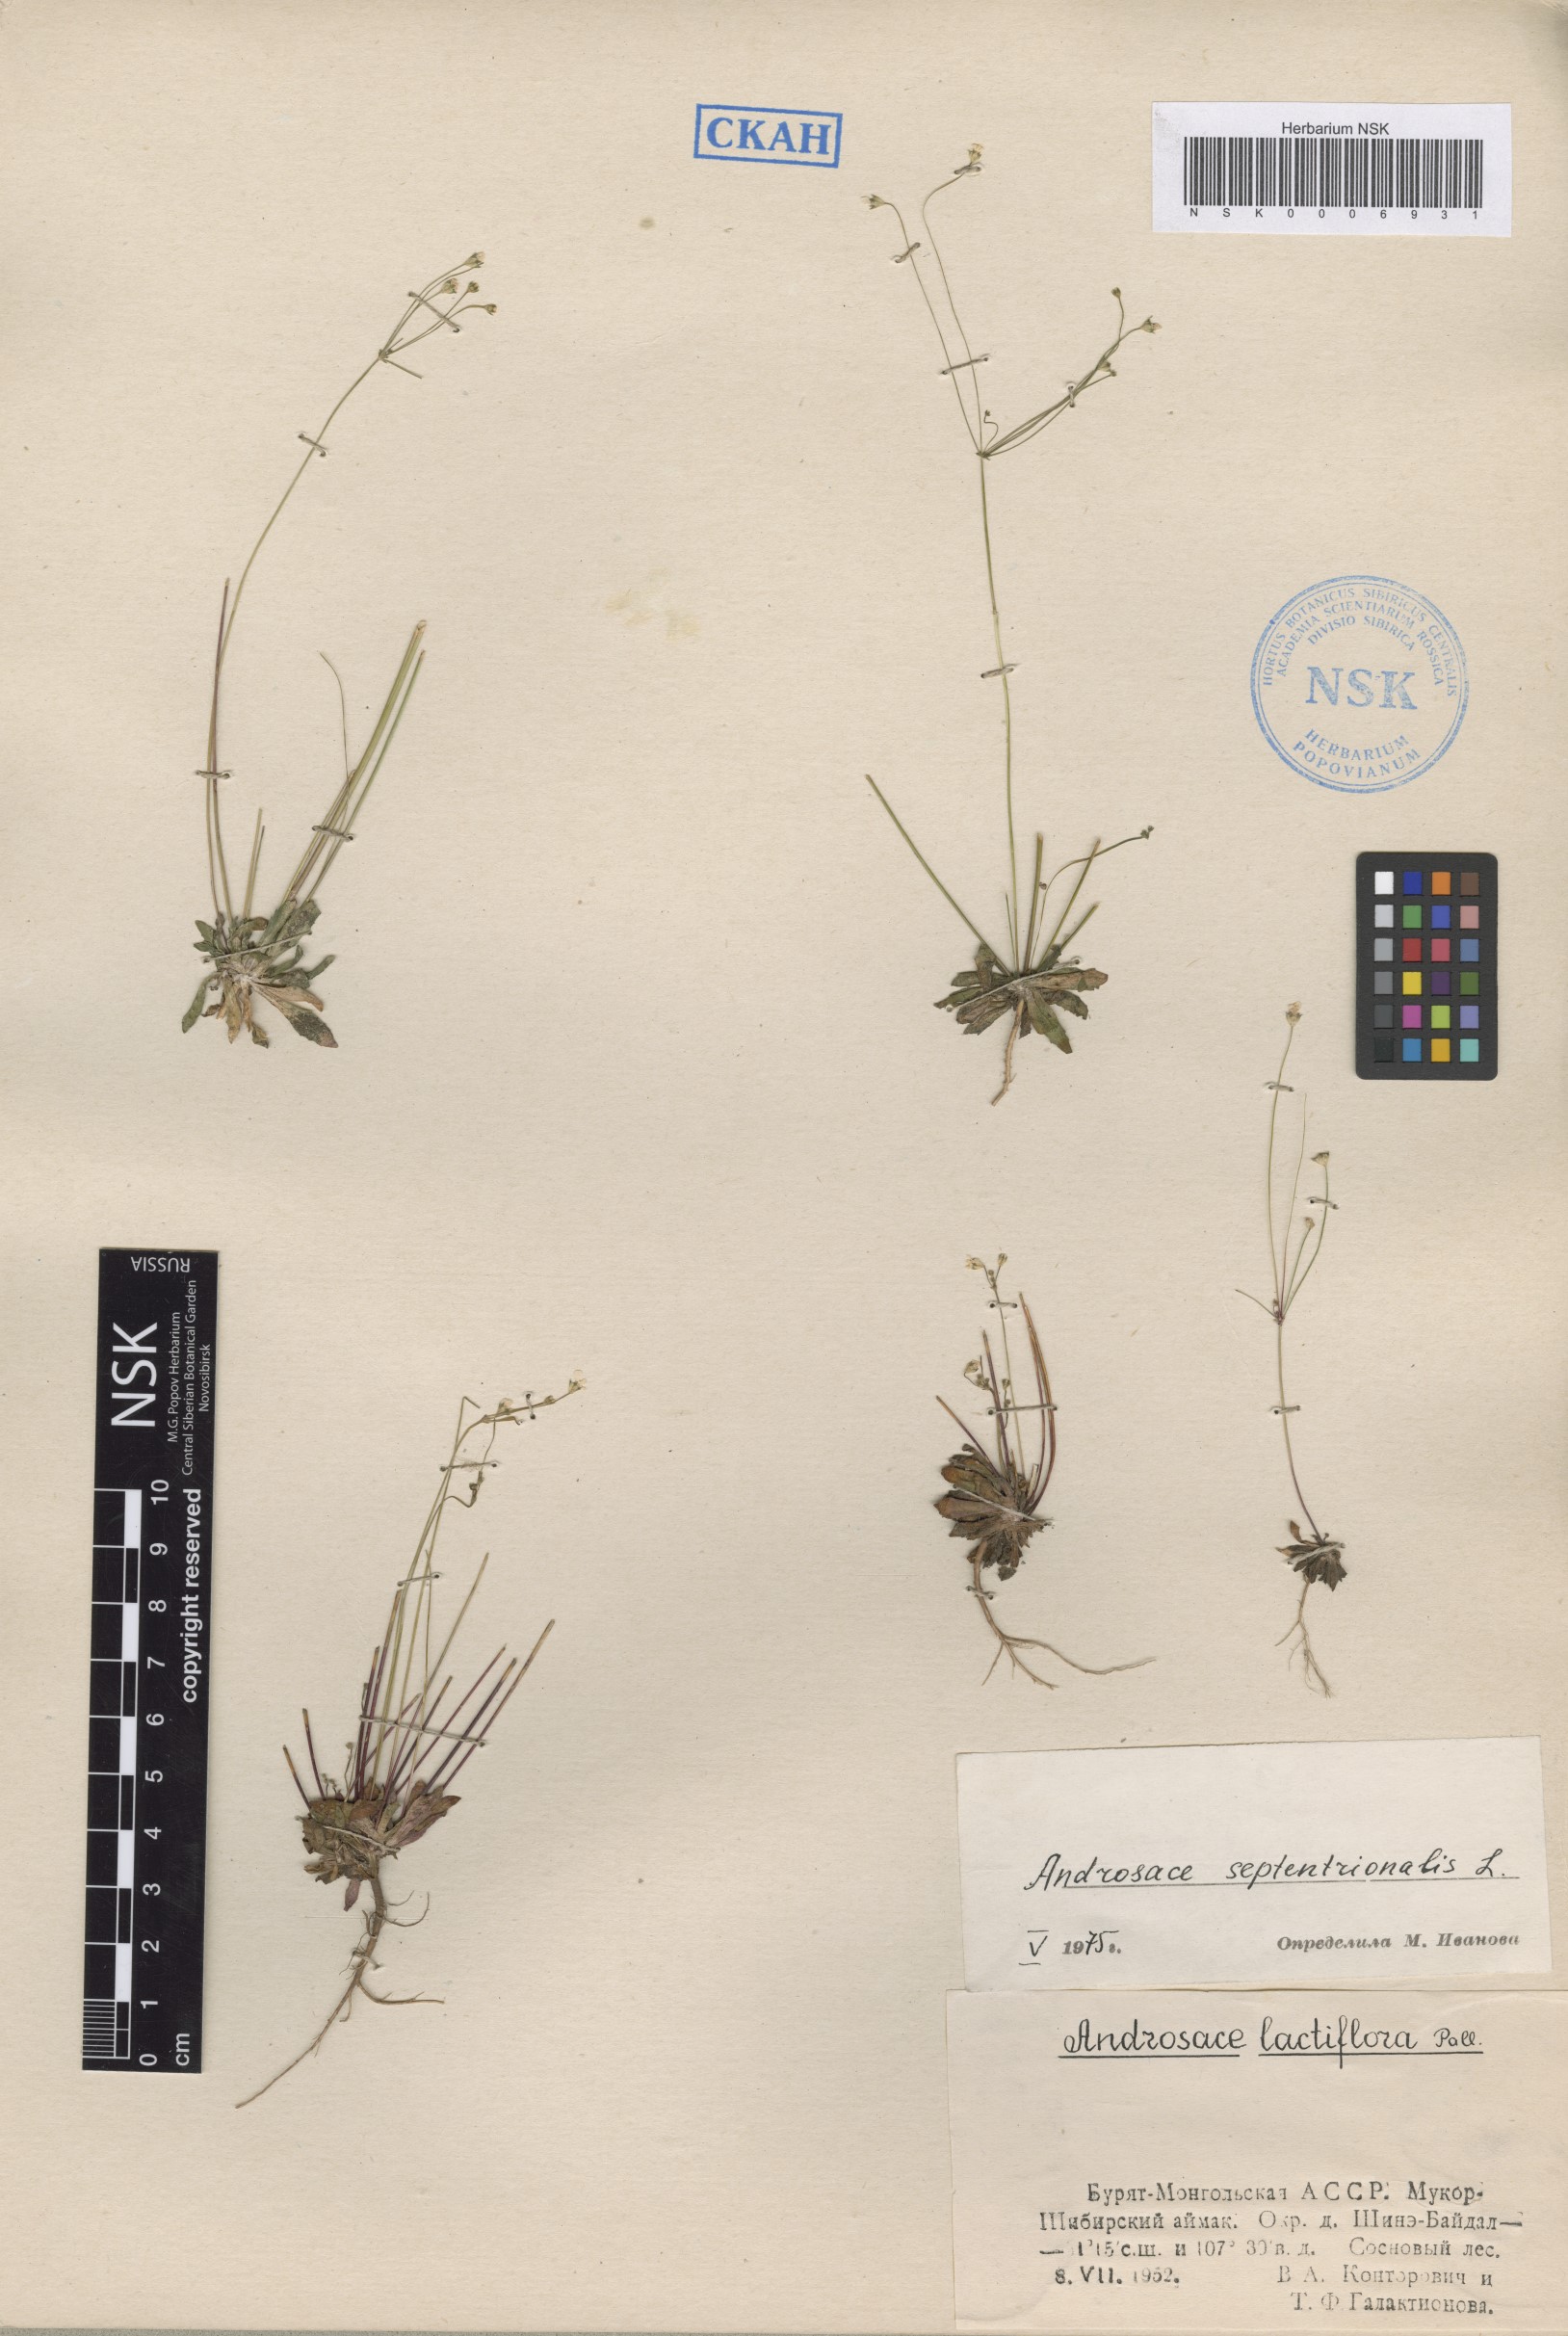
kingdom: Plantae
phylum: Tracheophyta
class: Magnoliopsida
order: Ericales
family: Primulaceae
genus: Androsace
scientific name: Androsace septentrionalis
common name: Hairy northern fairy-candelabra
